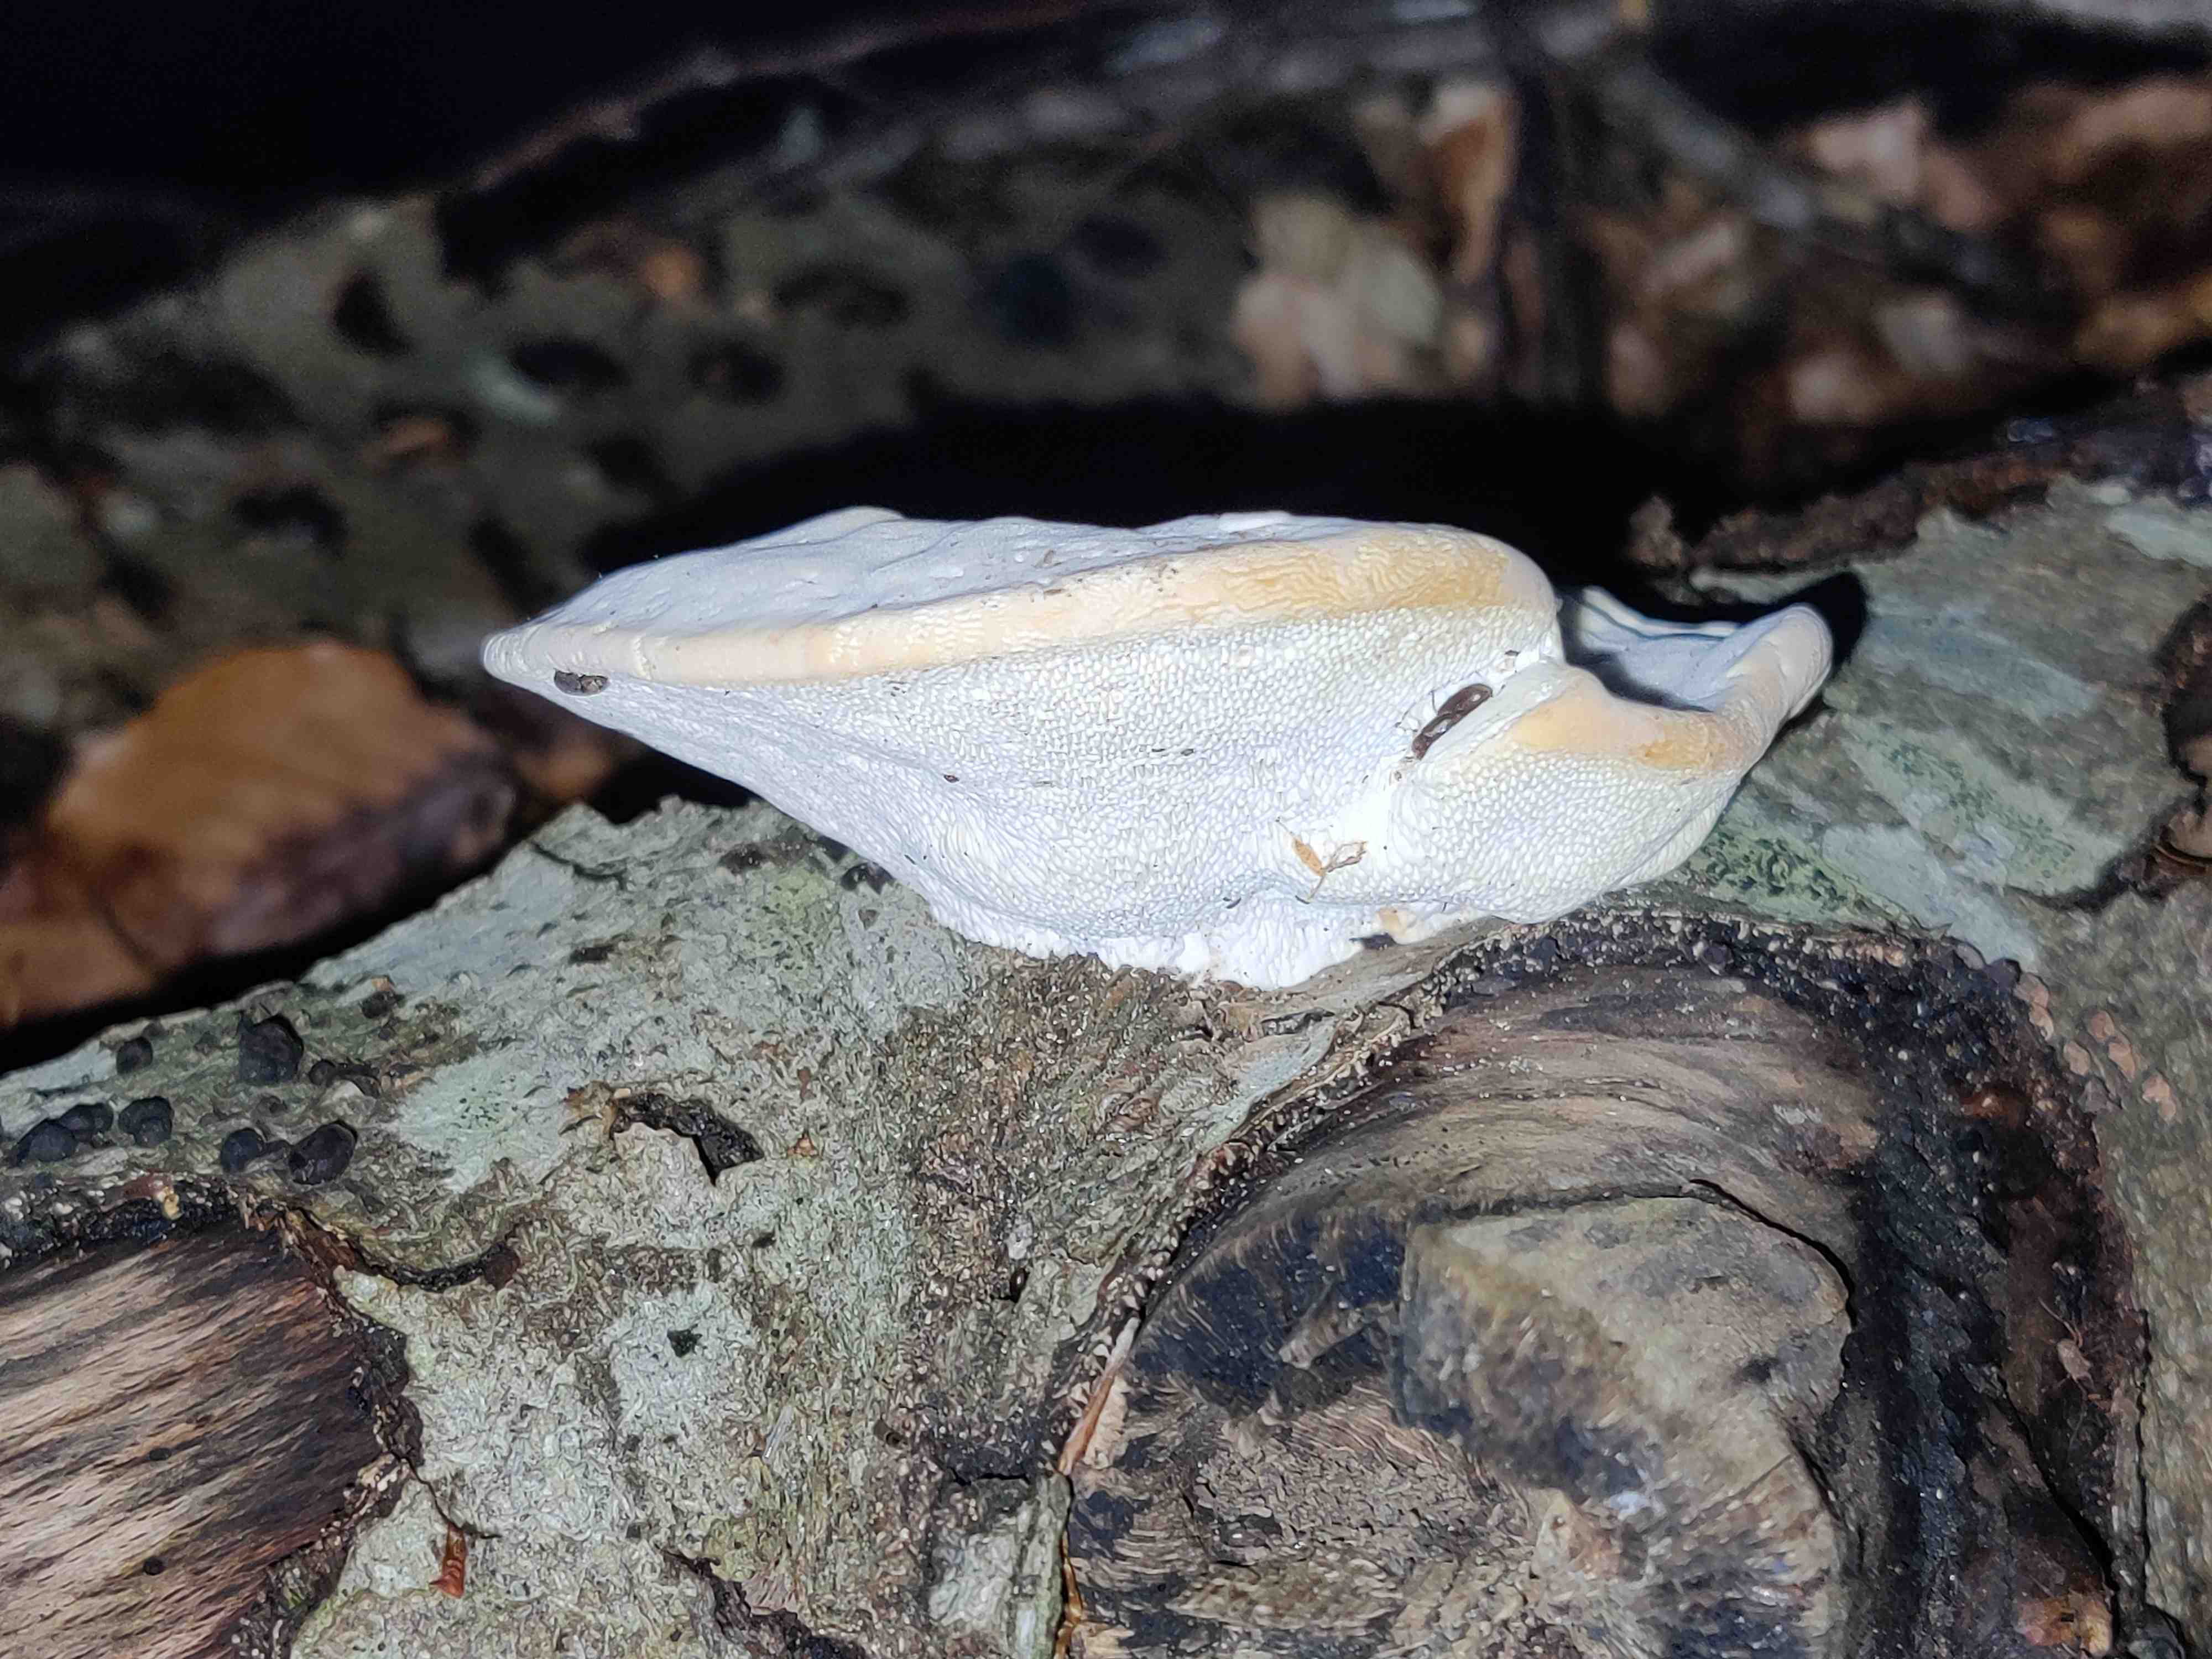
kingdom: Fungi
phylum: Basidiomycota
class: Agaricomycetes
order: Polyporales
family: Polyporaceae
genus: Trametes
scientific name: Trametes gibbosa
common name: puklet læderporesvamp
